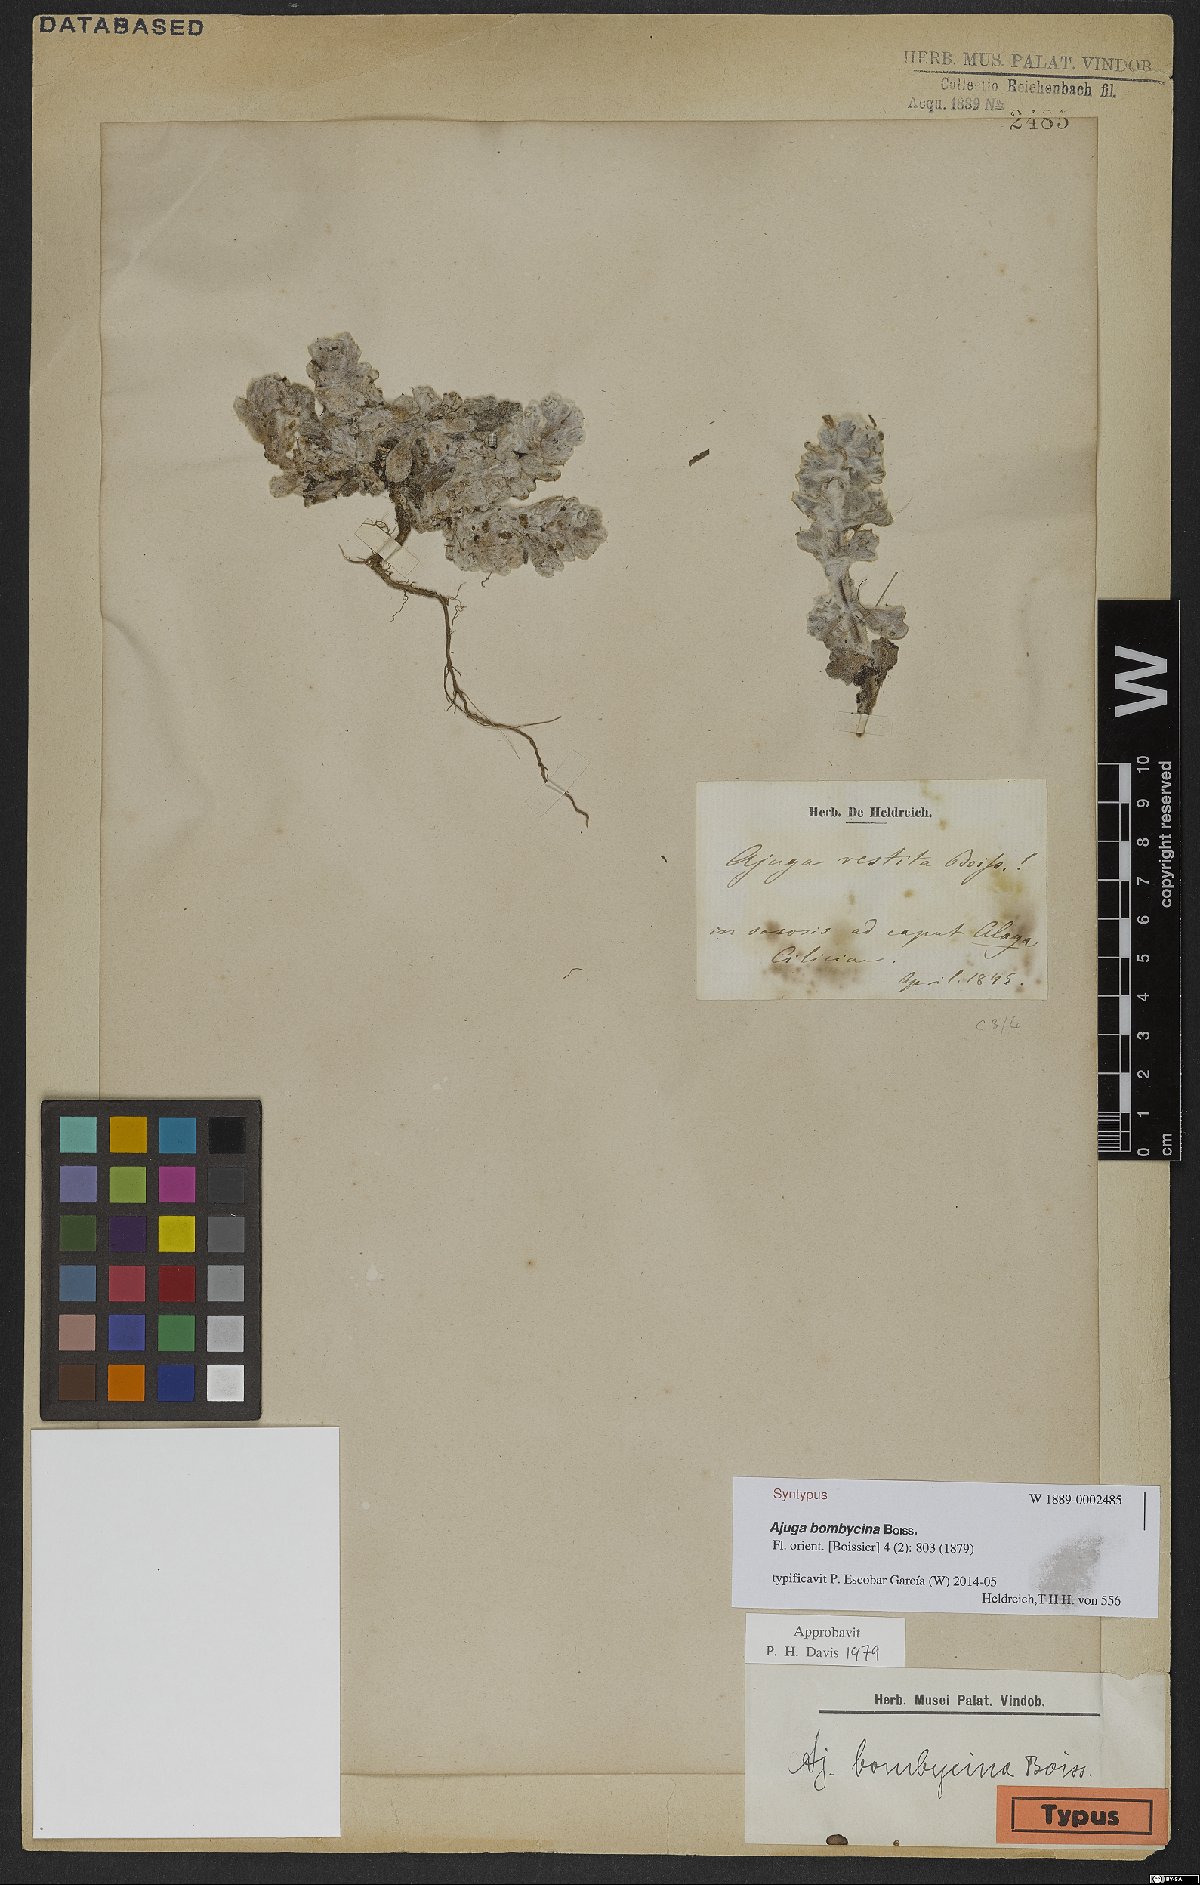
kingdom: Plantae
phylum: Tracheophyta
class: Magnoliopsida
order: Lamiales
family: Lamiaceae
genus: Ajuga
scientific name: Ajuga bombycina
